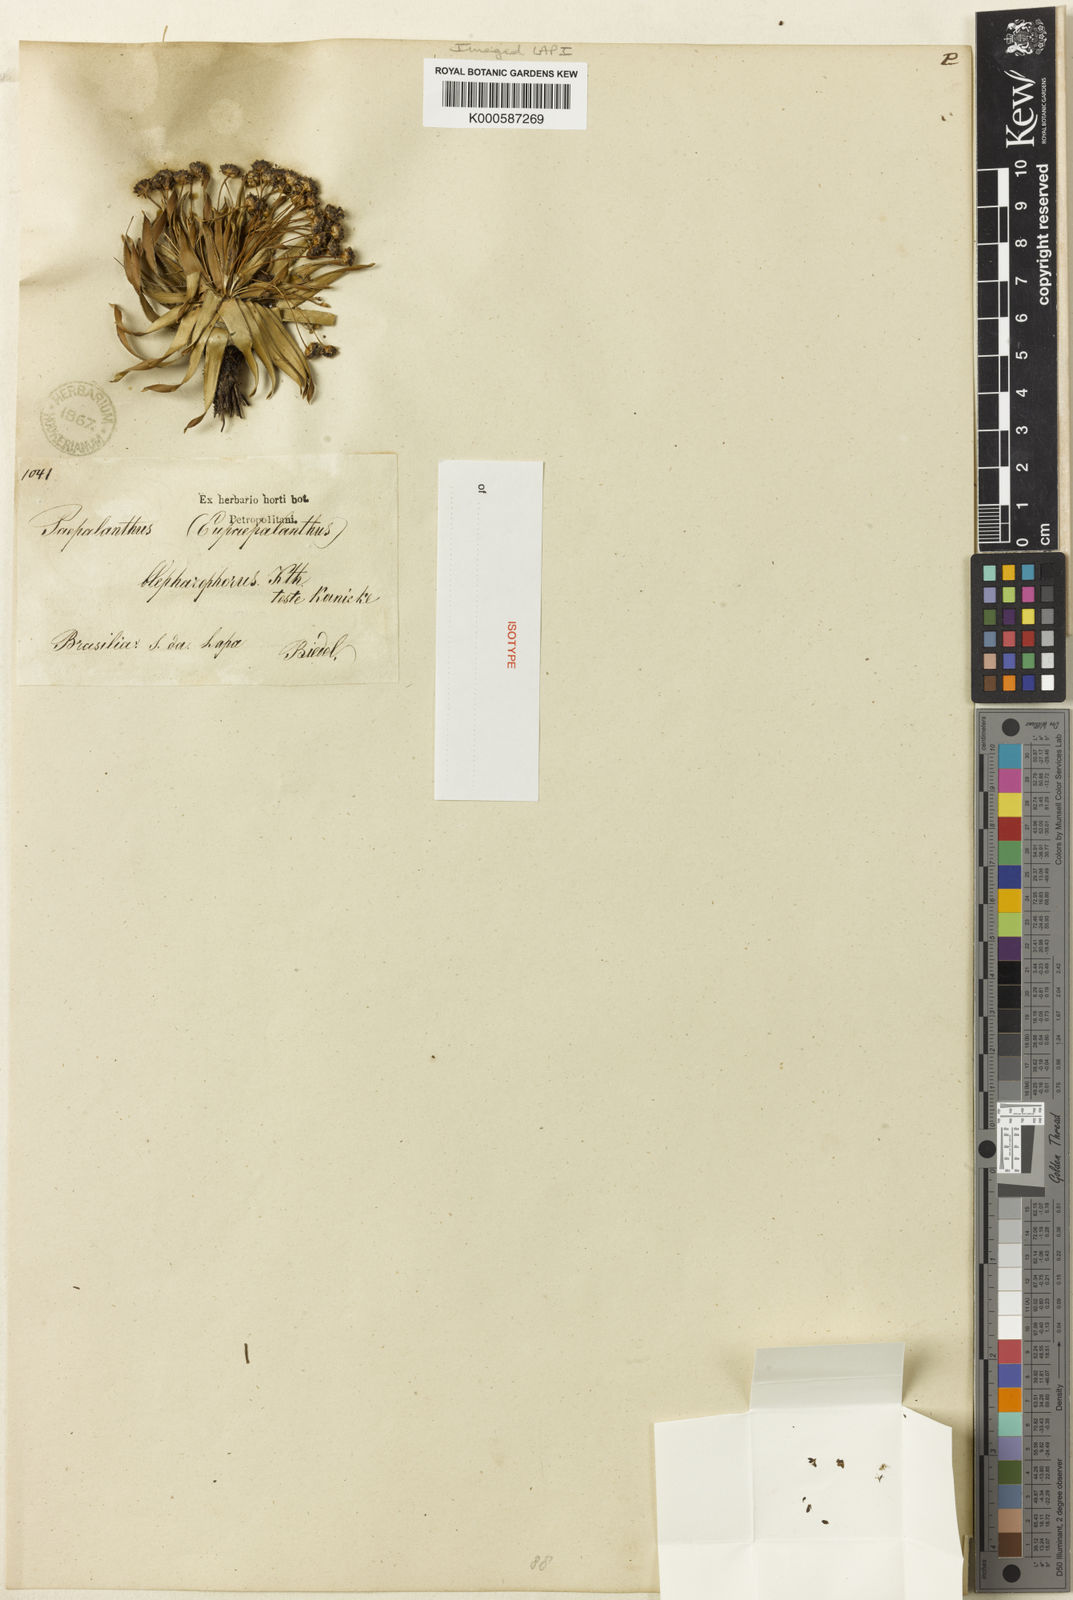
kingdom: Plantae
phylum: Tracheophyta
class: Liliopsida
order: Poales
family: Eriocaulaceae
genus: Paepalanthus
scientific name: Paepalanthus blepharophorus
